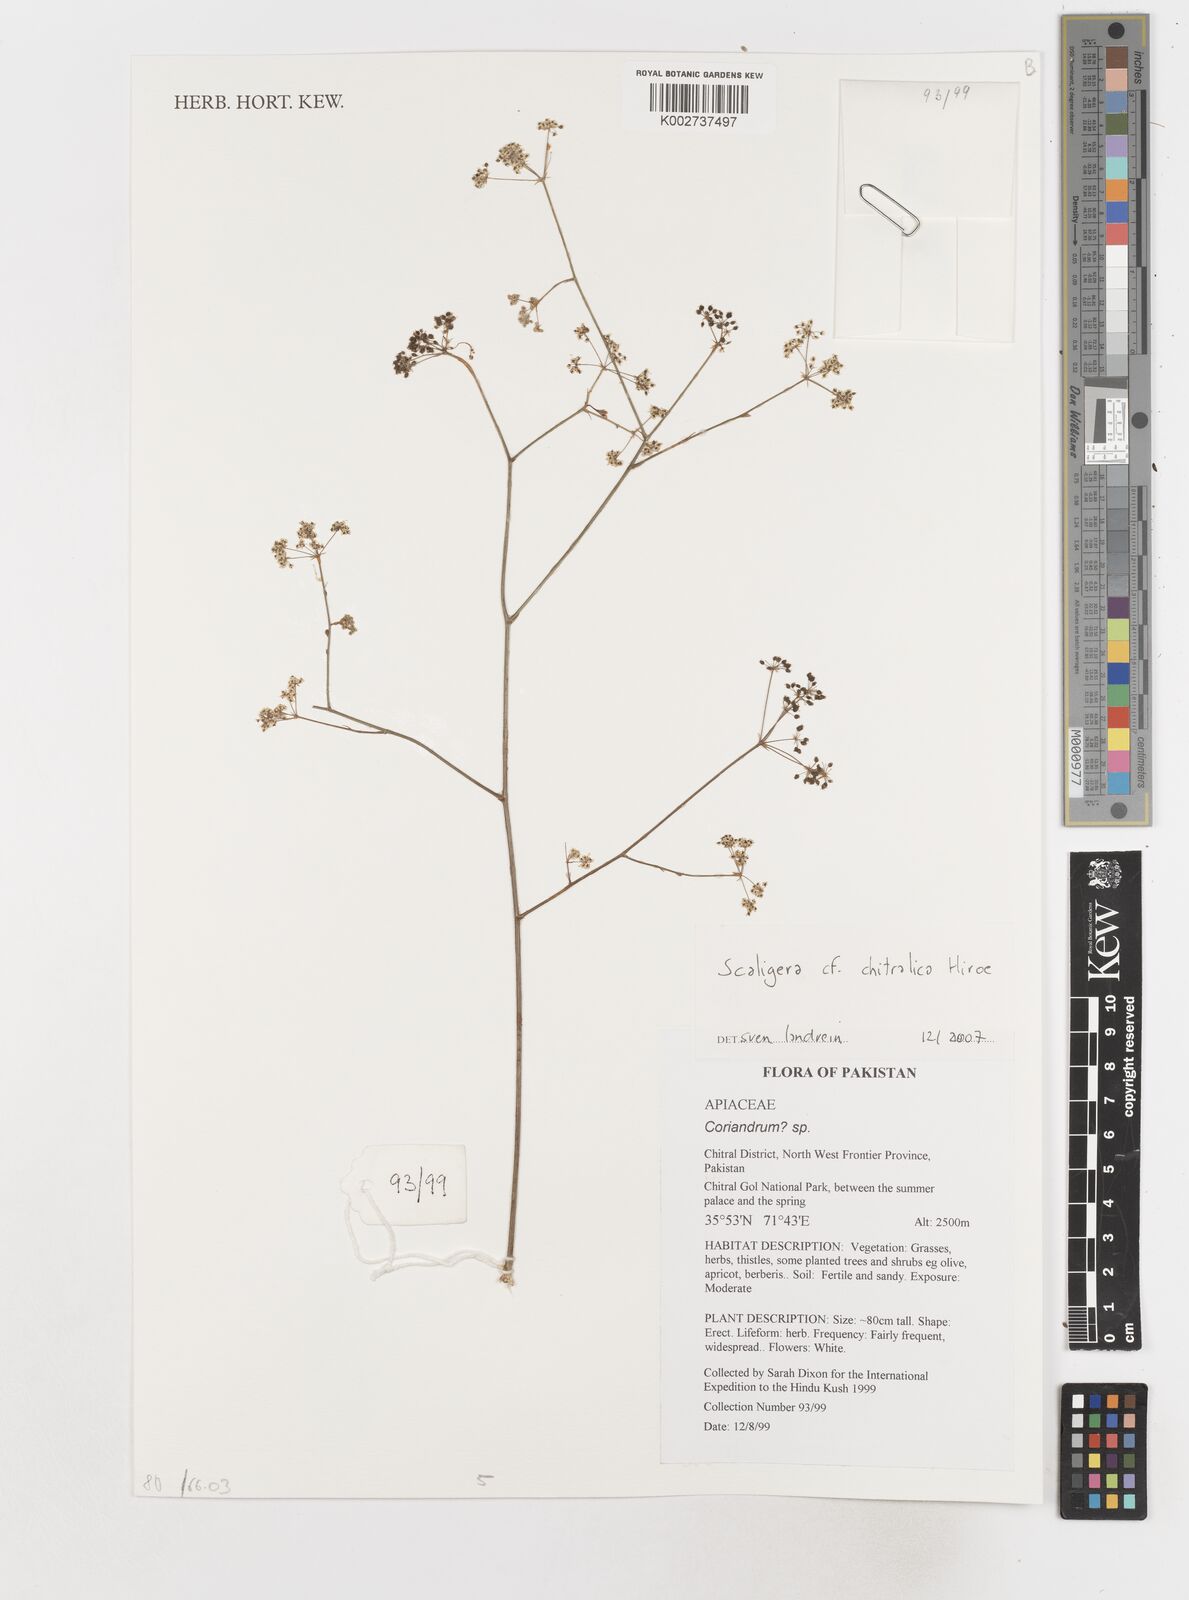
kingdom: Plantae
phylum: Tracheophyta
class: Magnoliopsida
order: Apiales
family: Apiaceae
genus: Scaligeria
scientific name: Scaligeria
